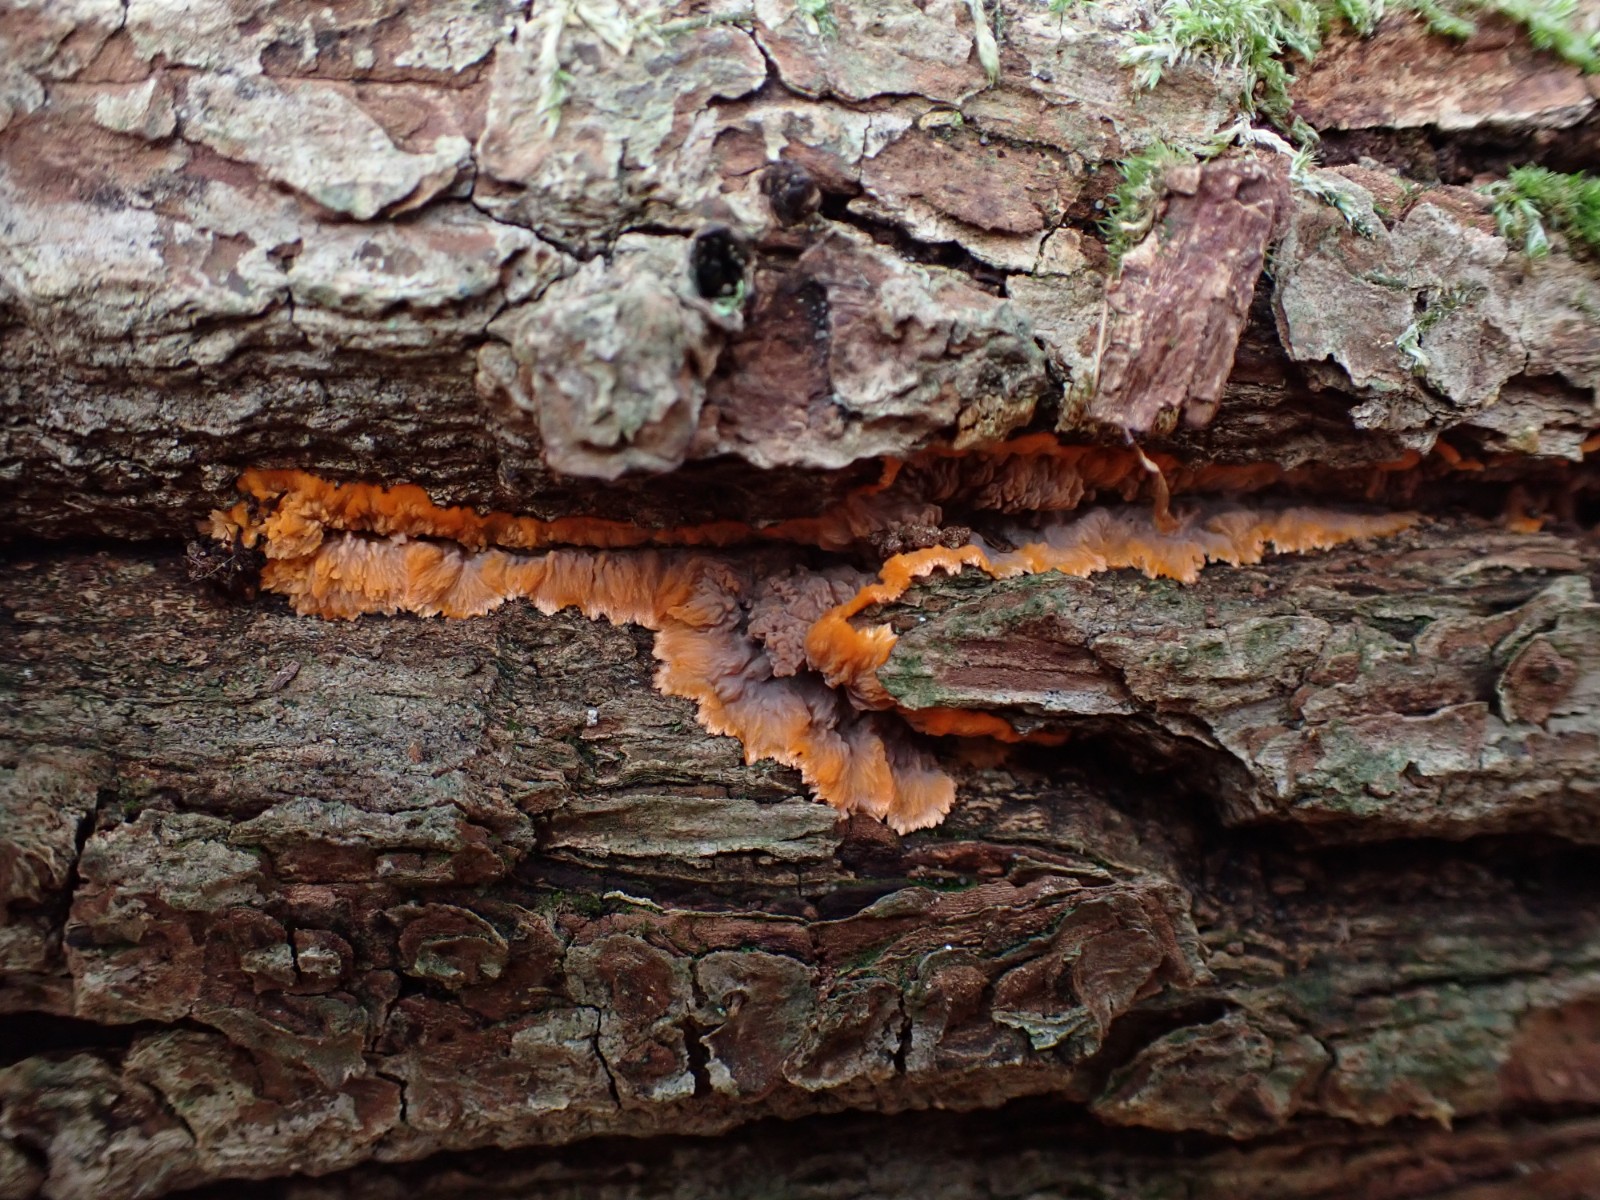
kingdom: Fungi
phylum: Basidiomycota
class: Agaricomycetes
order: Polyporales
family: Meruliaceae
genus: Phlebia
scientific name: Phlebia radiata
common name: stråle-åresvamp
